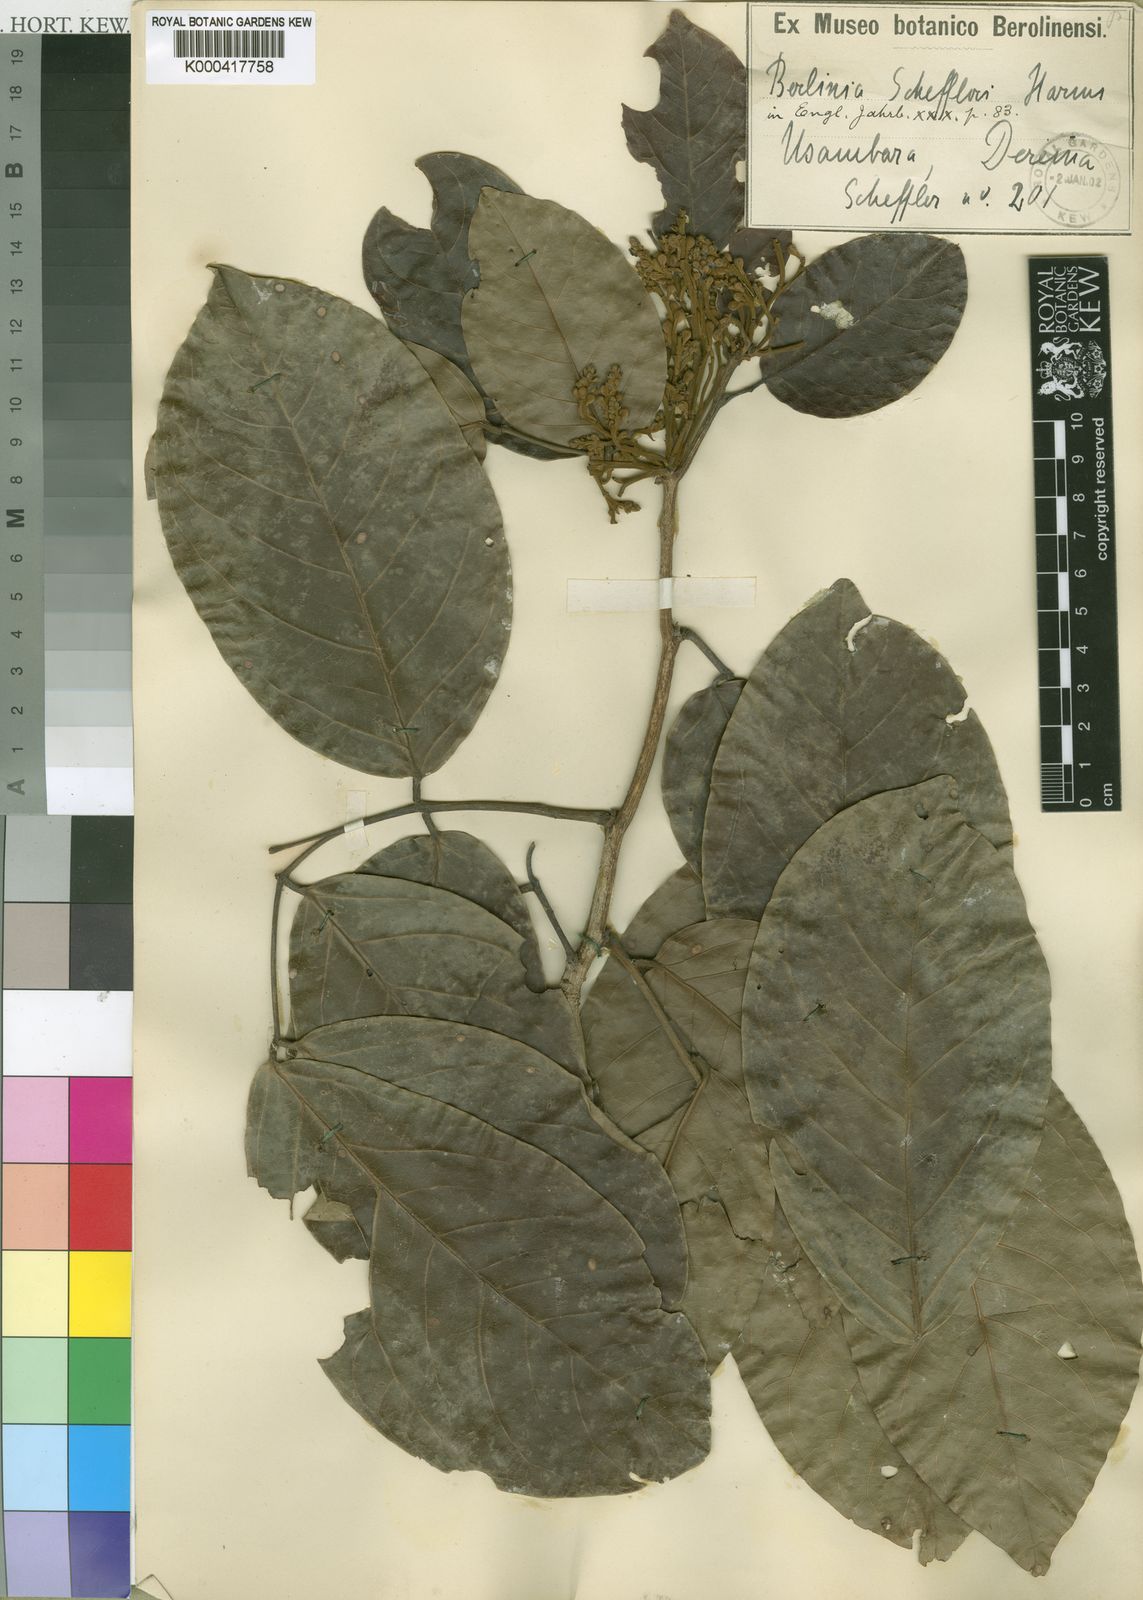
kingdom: Plantae
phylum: Tracheophyta
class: Magnoliopsida
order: Fabales
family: Fabaceae
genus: Isoberlinia
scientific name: Isoberlinia scheffleri
